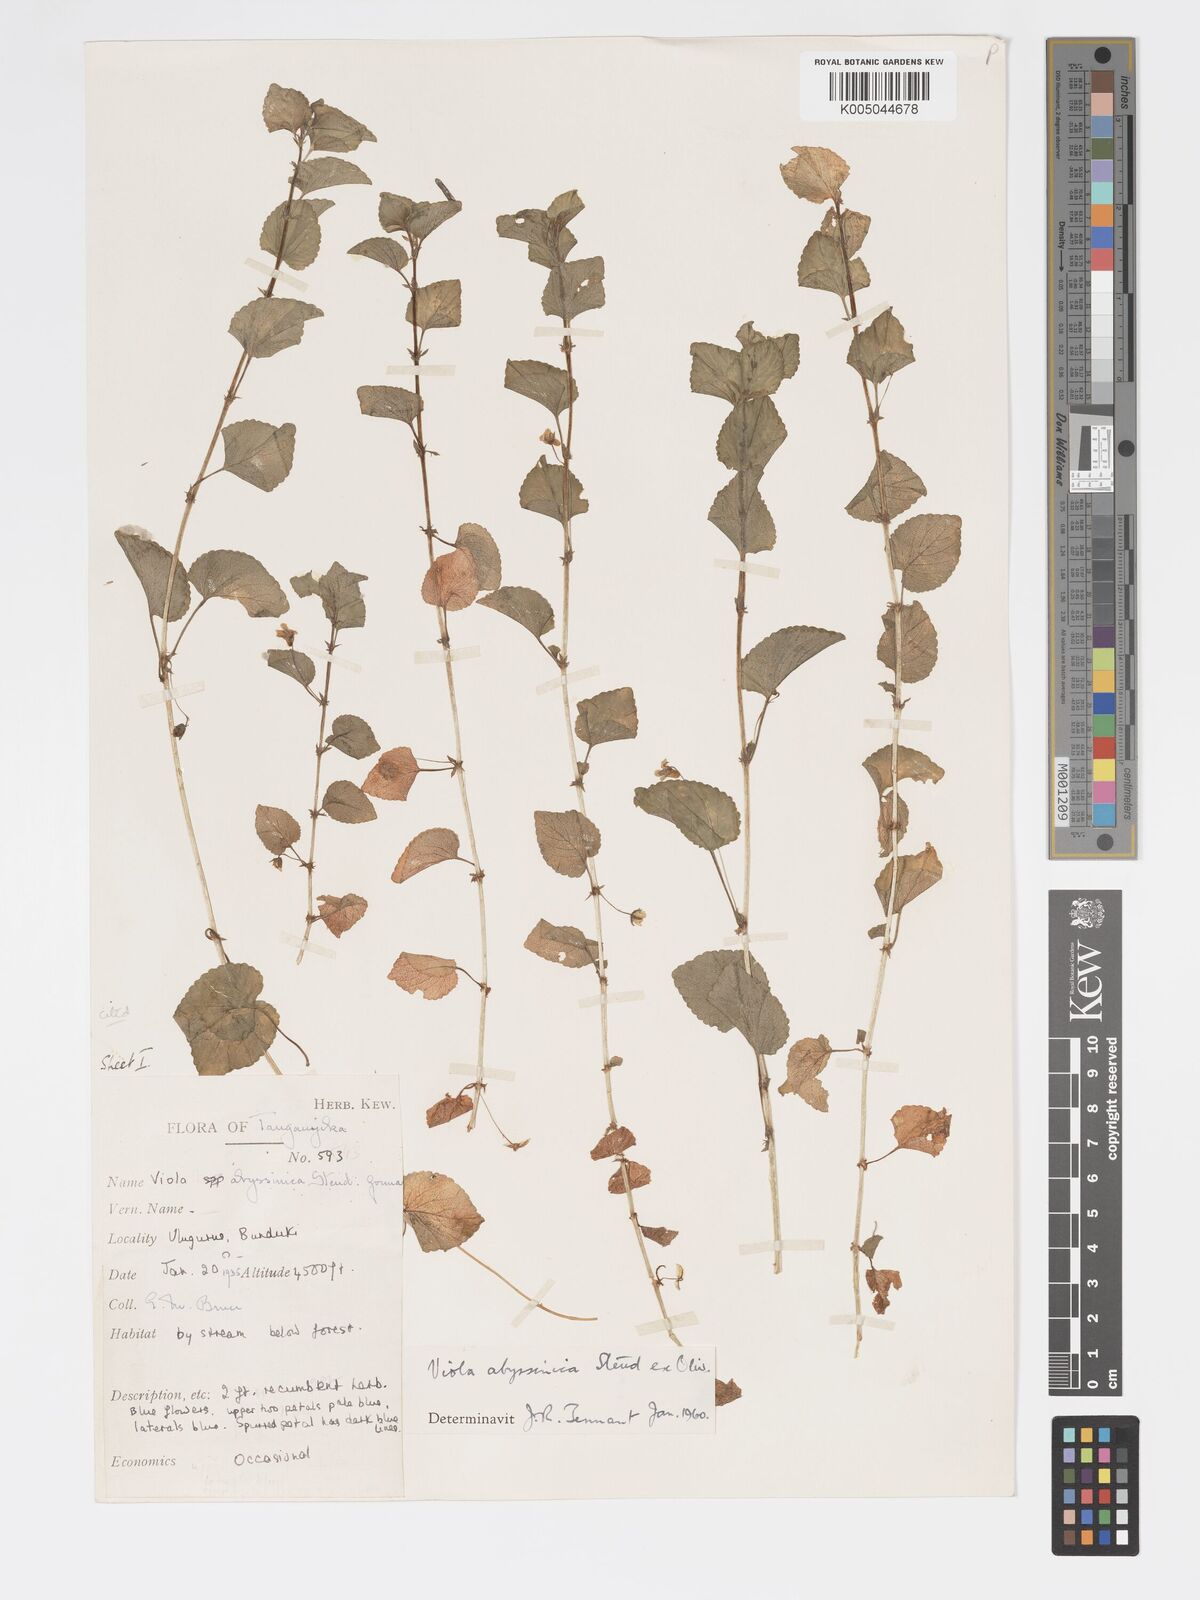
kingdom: Plantae
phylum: Tracheophyta
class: Magnoliopsida
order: Malpighiales
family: Violaceae
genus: Viola
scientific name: Viola abyssinica
